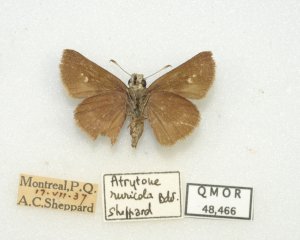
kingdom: Animalia
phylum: Arthropoda
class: Insecta
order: Lepidoptera
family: Hesperiidae
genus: Euphyes
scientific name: Euphyes vestris
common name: Dun Skipper
